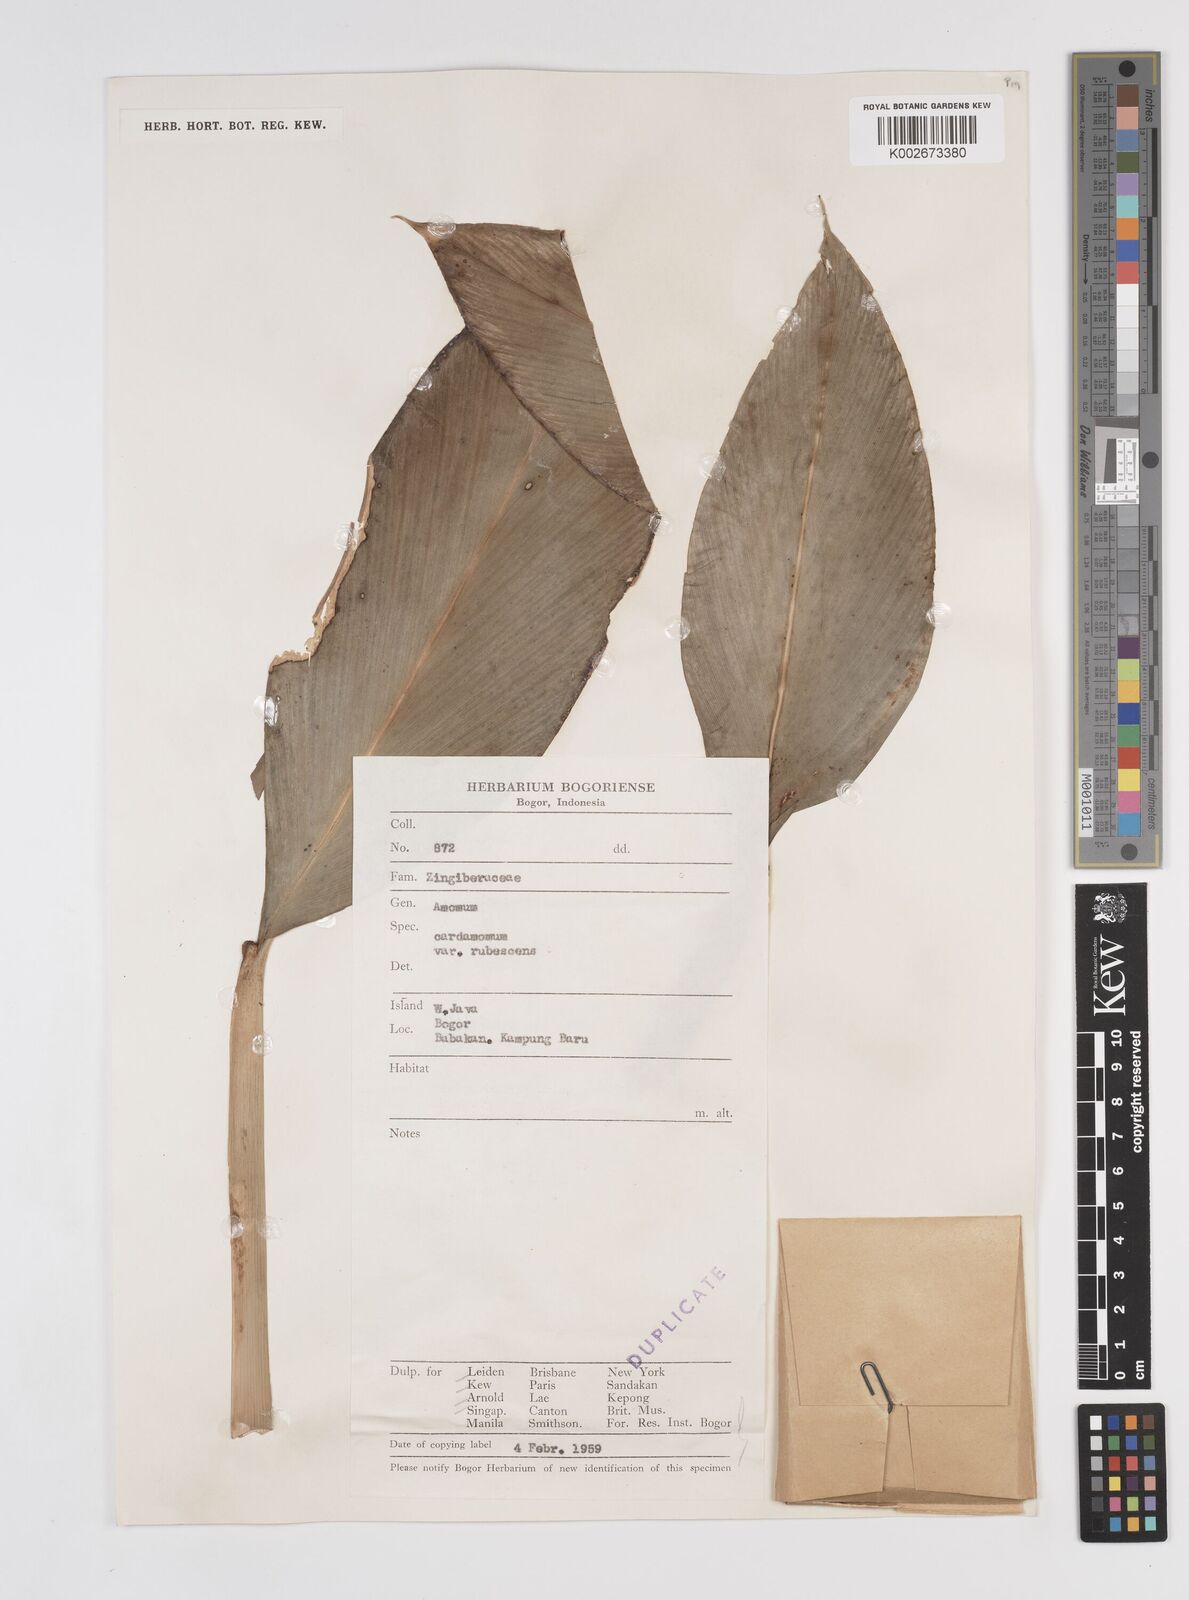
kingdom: Plantae
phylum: Tracheophyta
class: Liliopsida
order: Zingiberales
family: Zingiberaceae
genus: Wurfbainia
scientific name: Wurfbainia compacta
